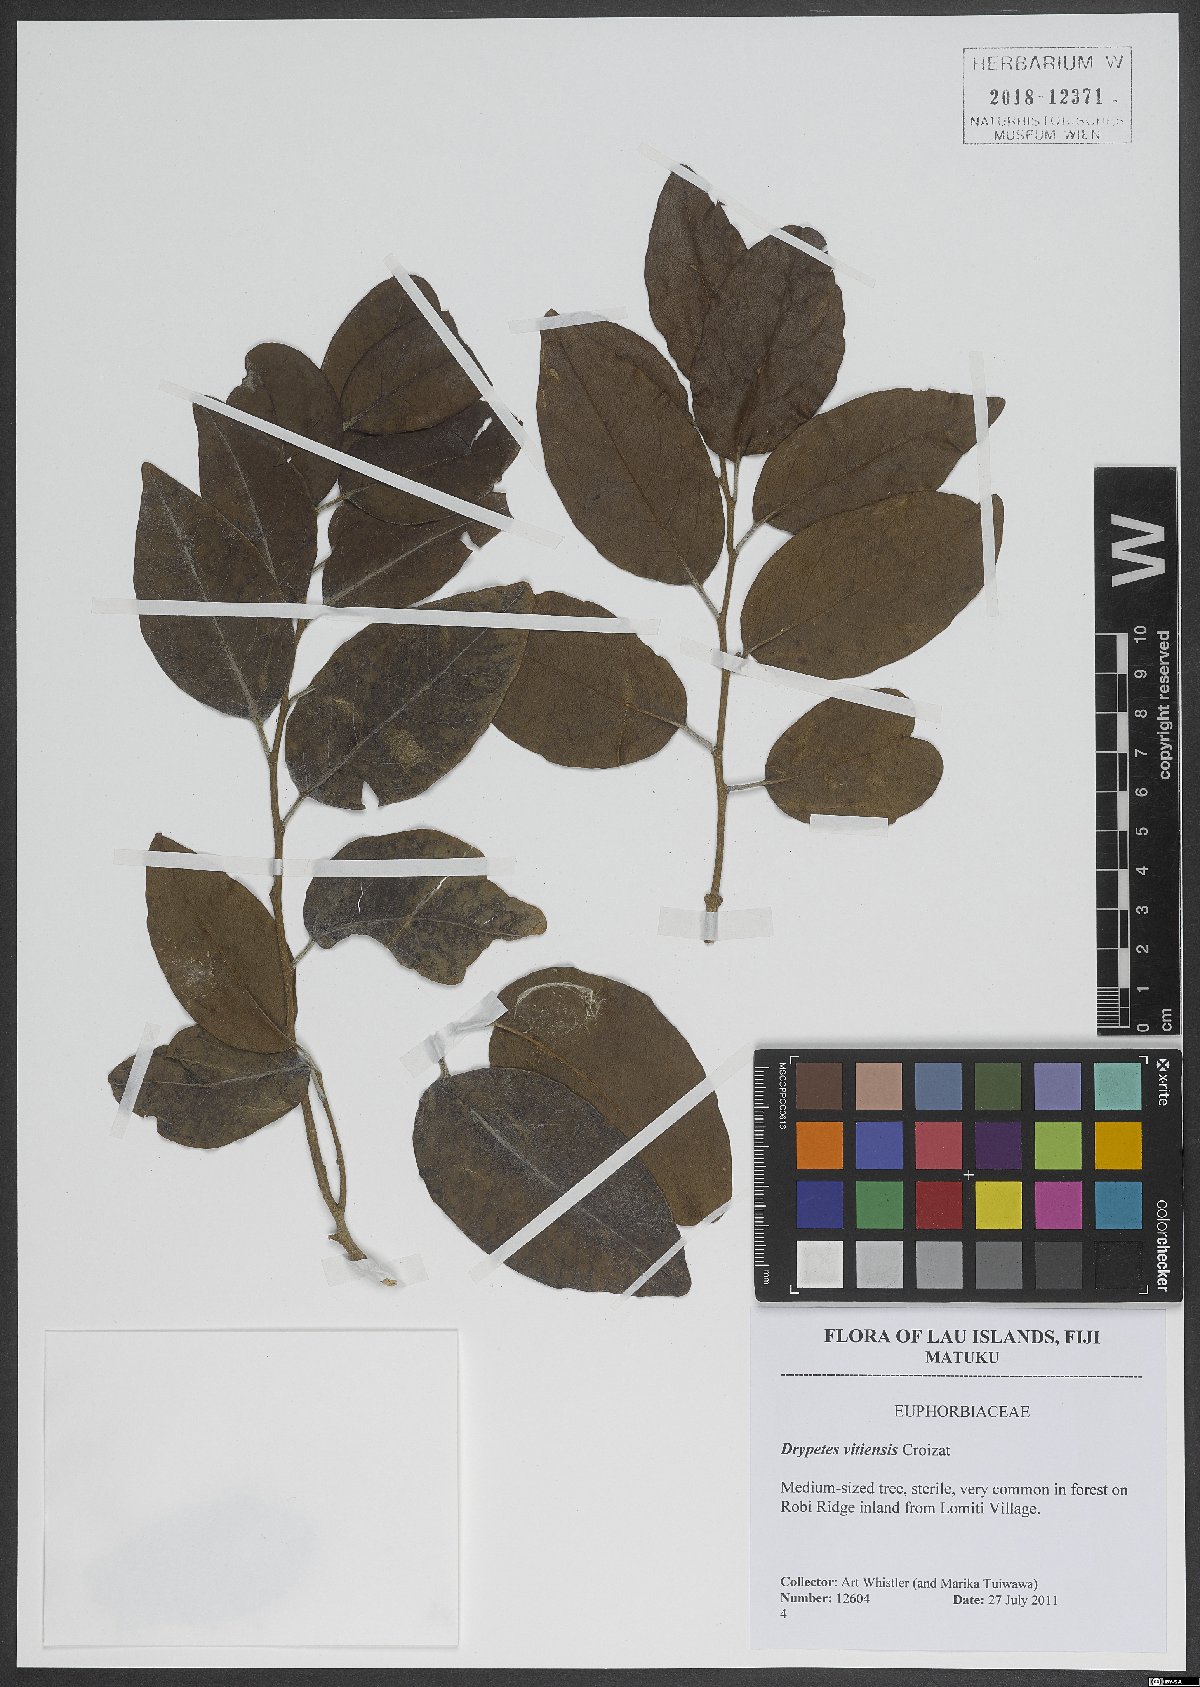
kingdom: Plantae
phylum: Tracheophyta
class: Magnoliopsida
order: Malpighiales
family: Putranjivaceae
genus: Drypetes
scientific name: Drypetes vitiensis
